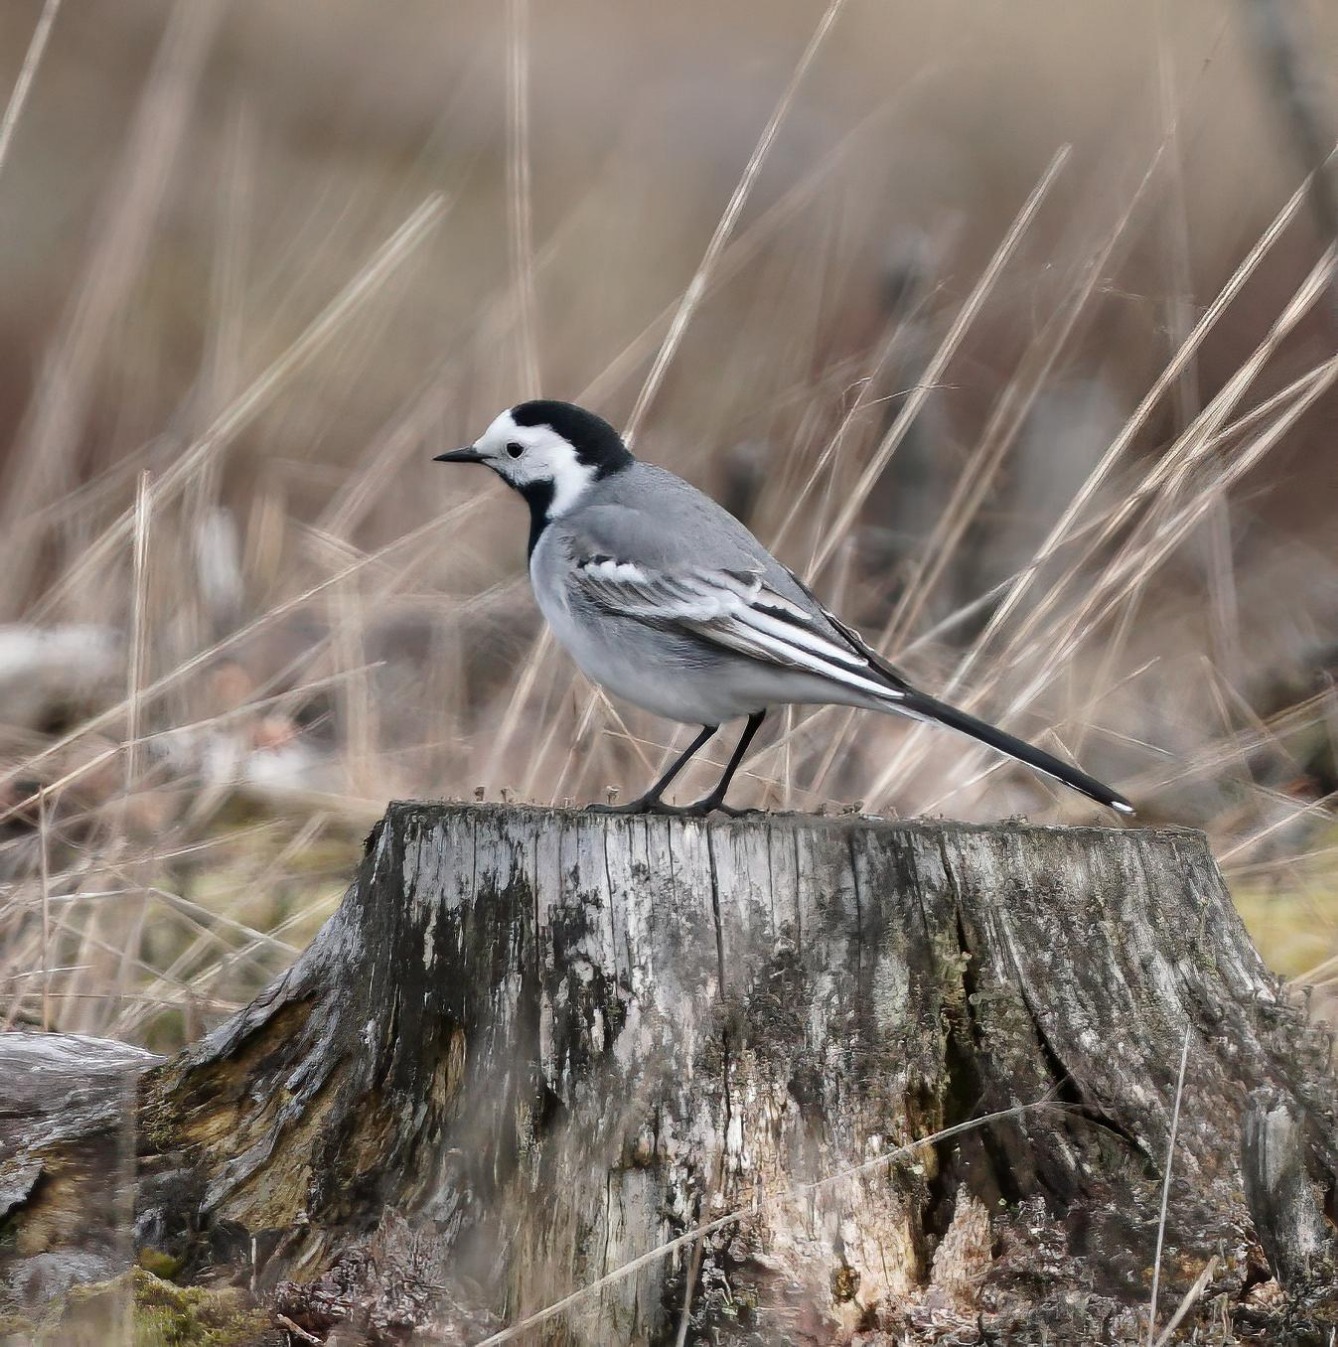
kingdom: Animalia
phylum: Chordata
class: Aves
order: Passeriformes
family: Motacillidae
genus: Motacilla
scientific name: Motacilla alba
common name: Hvid vipstjert
